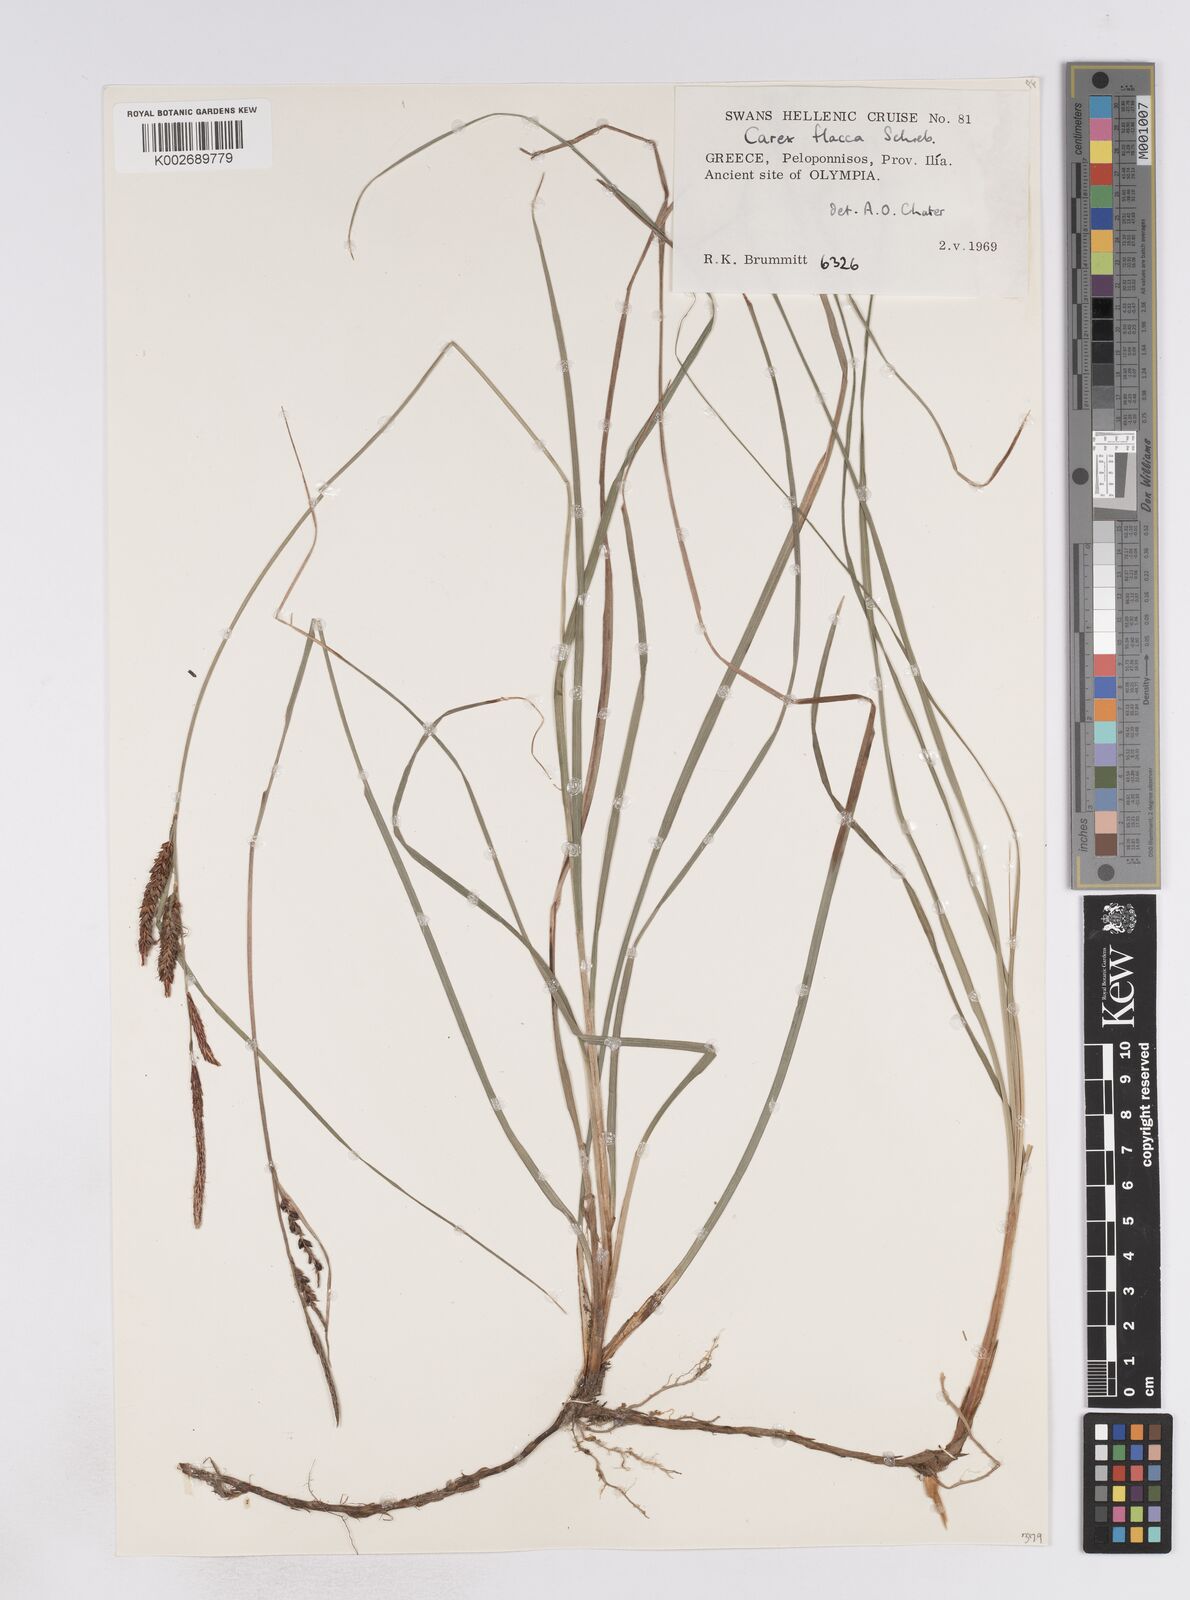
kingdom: Plantae
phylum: Tracheophyta
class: Liliopsida
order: Poales
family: Cyperaceae
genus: Carex
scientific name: Carex flacca
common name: Glaucous sedge
